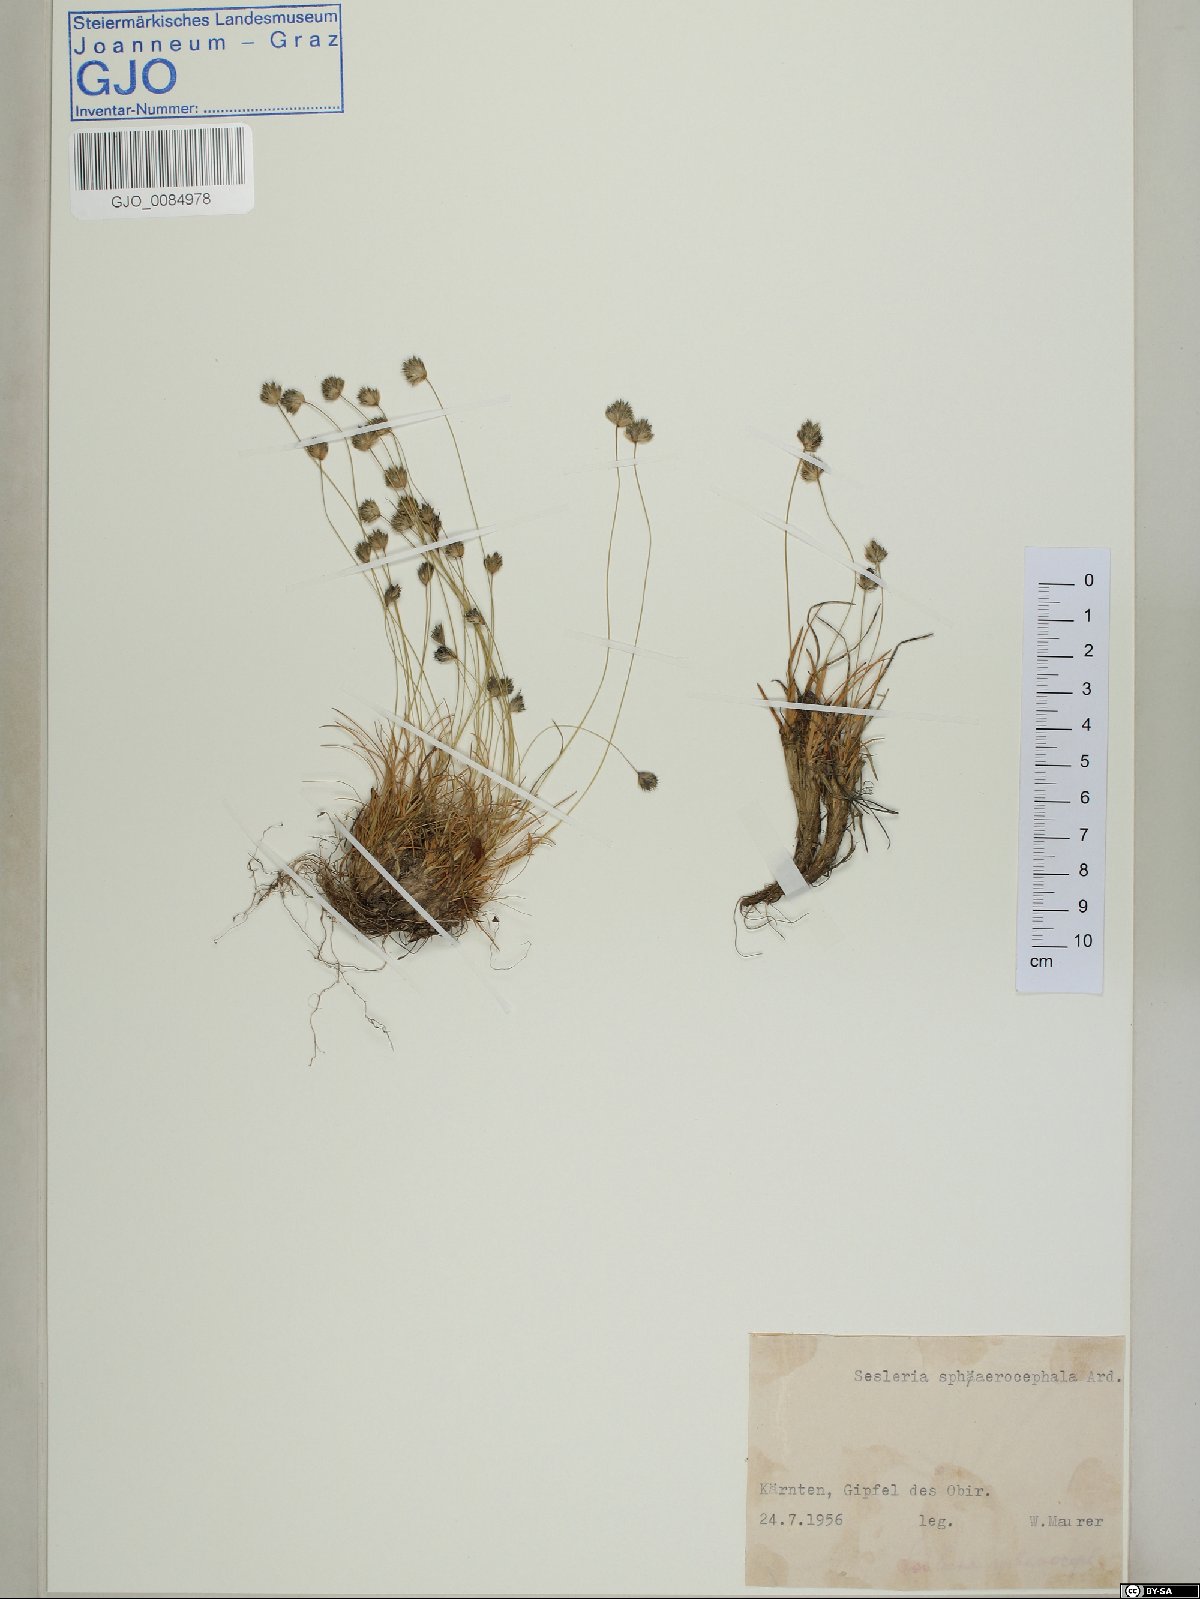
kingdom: Plantae
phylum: Tracheophyta
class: Liliopsida
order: Poales
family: Poaceae
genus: Sesleriella
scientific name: Sesleriella sphaerocephala
